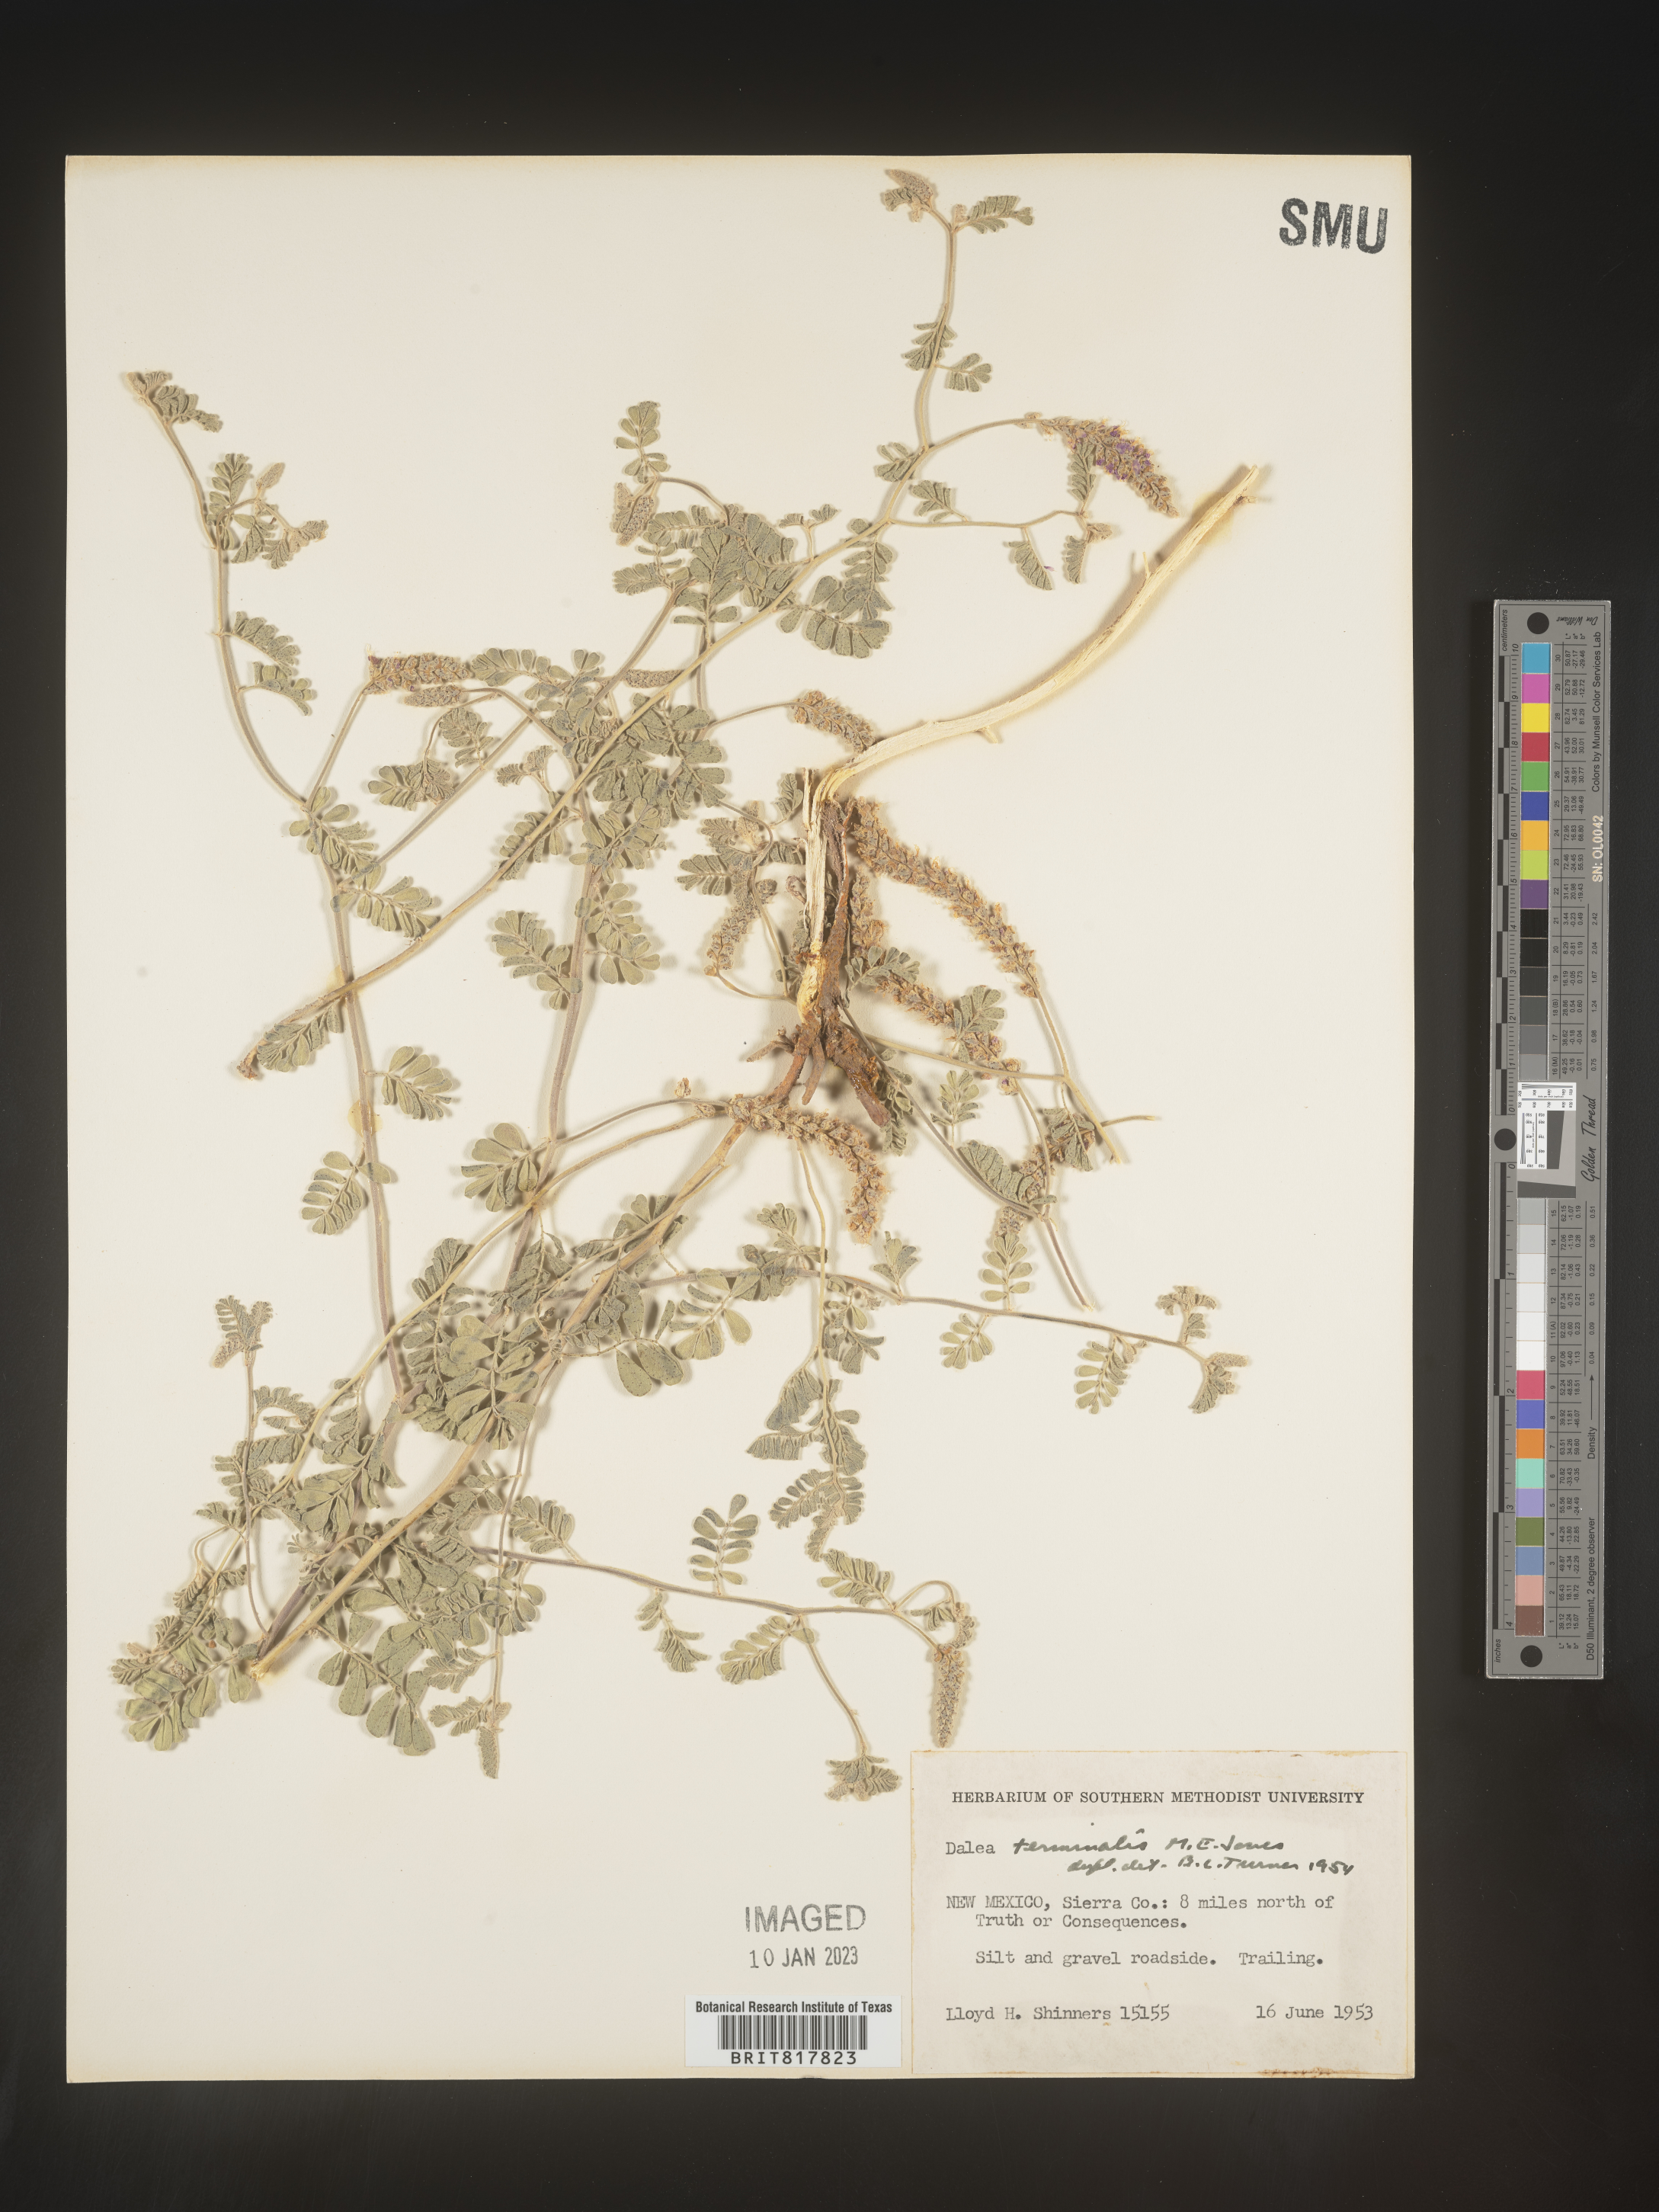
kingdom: Plantae
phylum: Tracheophyta
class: Magnoliopsida
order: Fabales
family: Fabaceae
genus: Dalea
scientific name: Dalea
